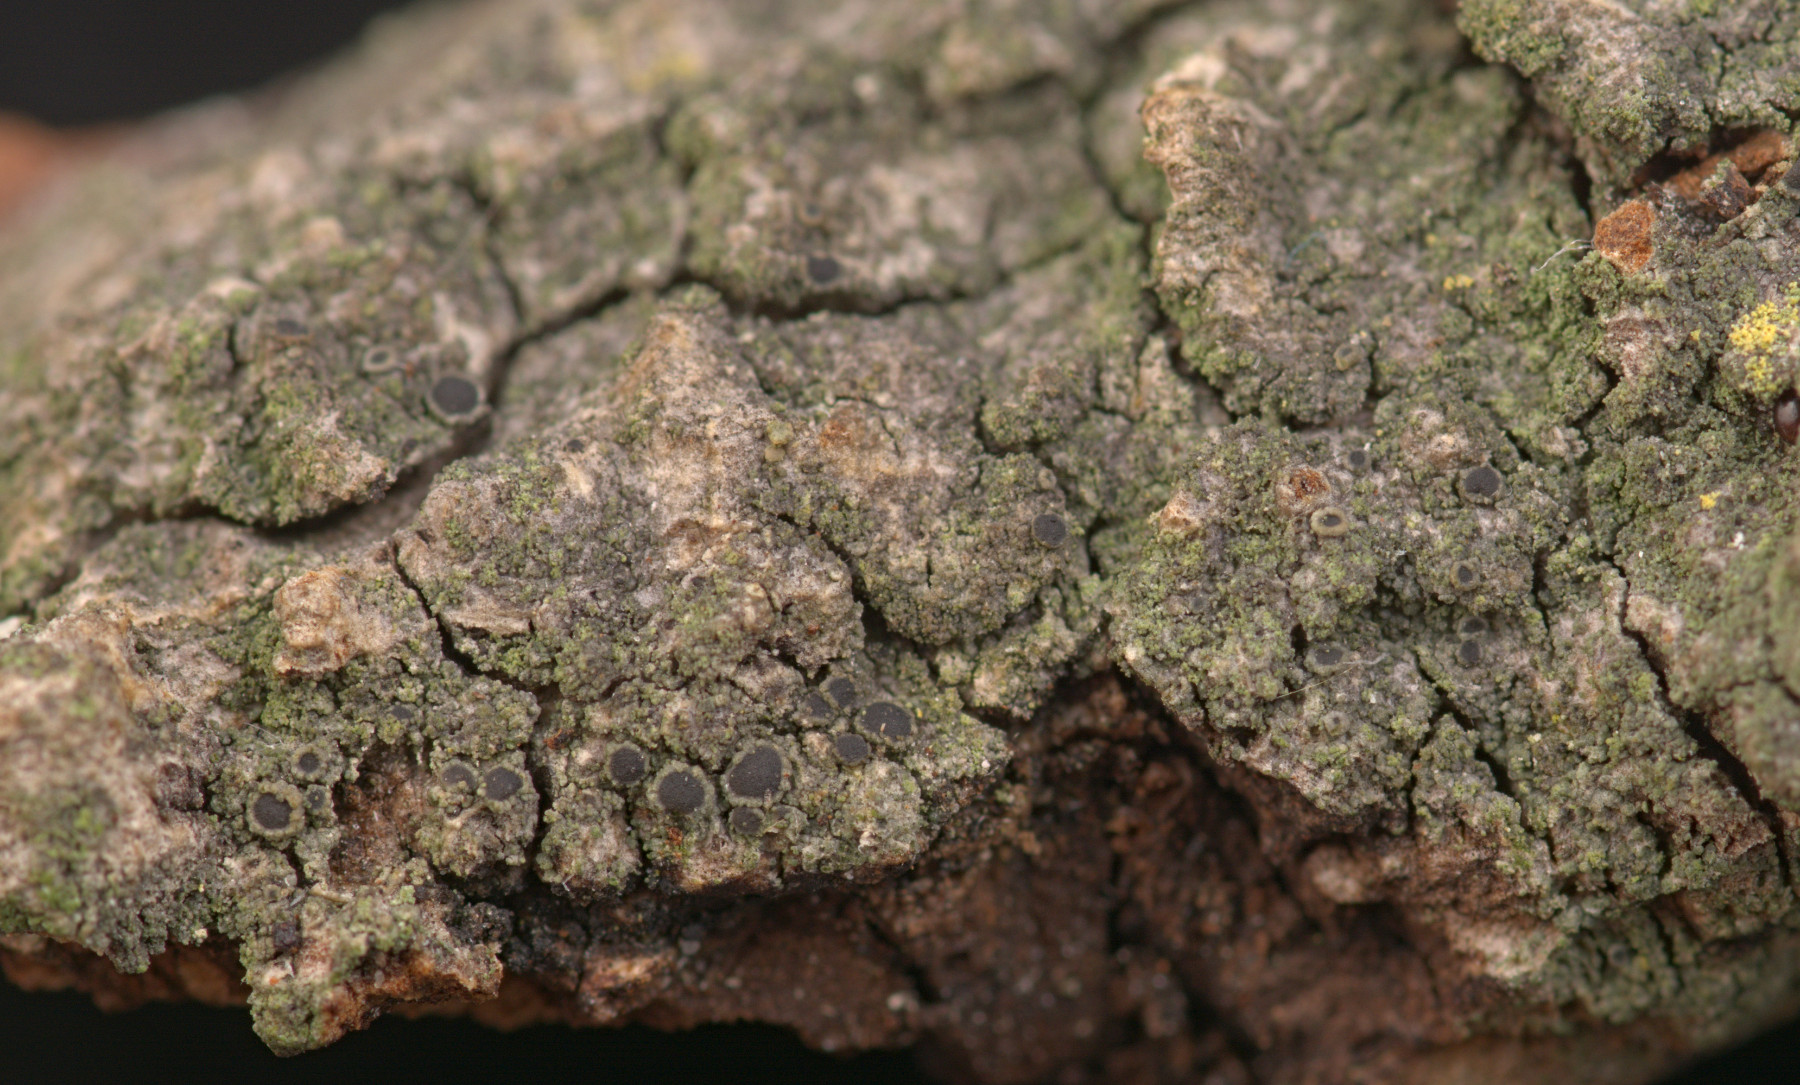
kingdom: Fungi
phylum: Ascomycota
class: Lecanoromycetes
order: Caliciales
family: Physciaceae
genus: Rinodina
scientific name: Rinodina pityrea
